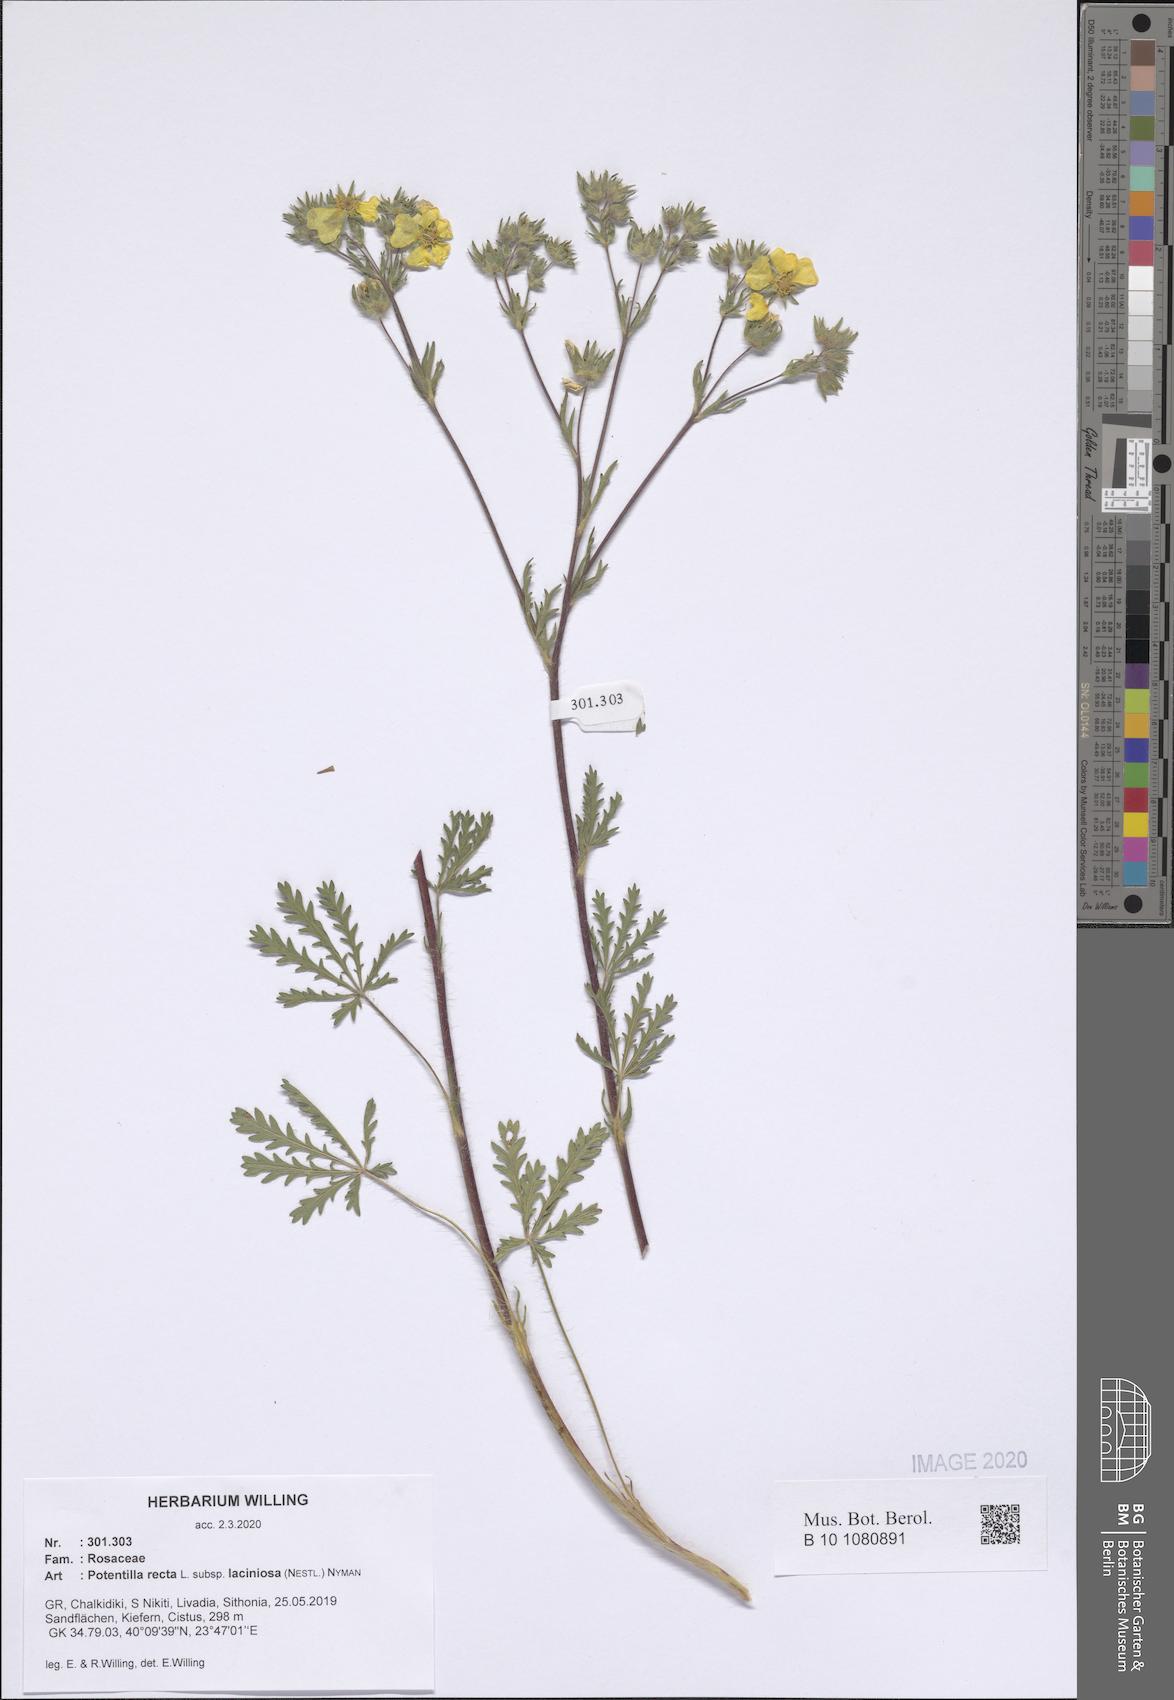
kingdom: Plantae
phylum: Tracheophyta
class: Magnoliopsida
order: Rosales
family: Rosaceae
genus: Potentilla
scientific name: Potentilla recta
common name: Sulphur cinquefoil
